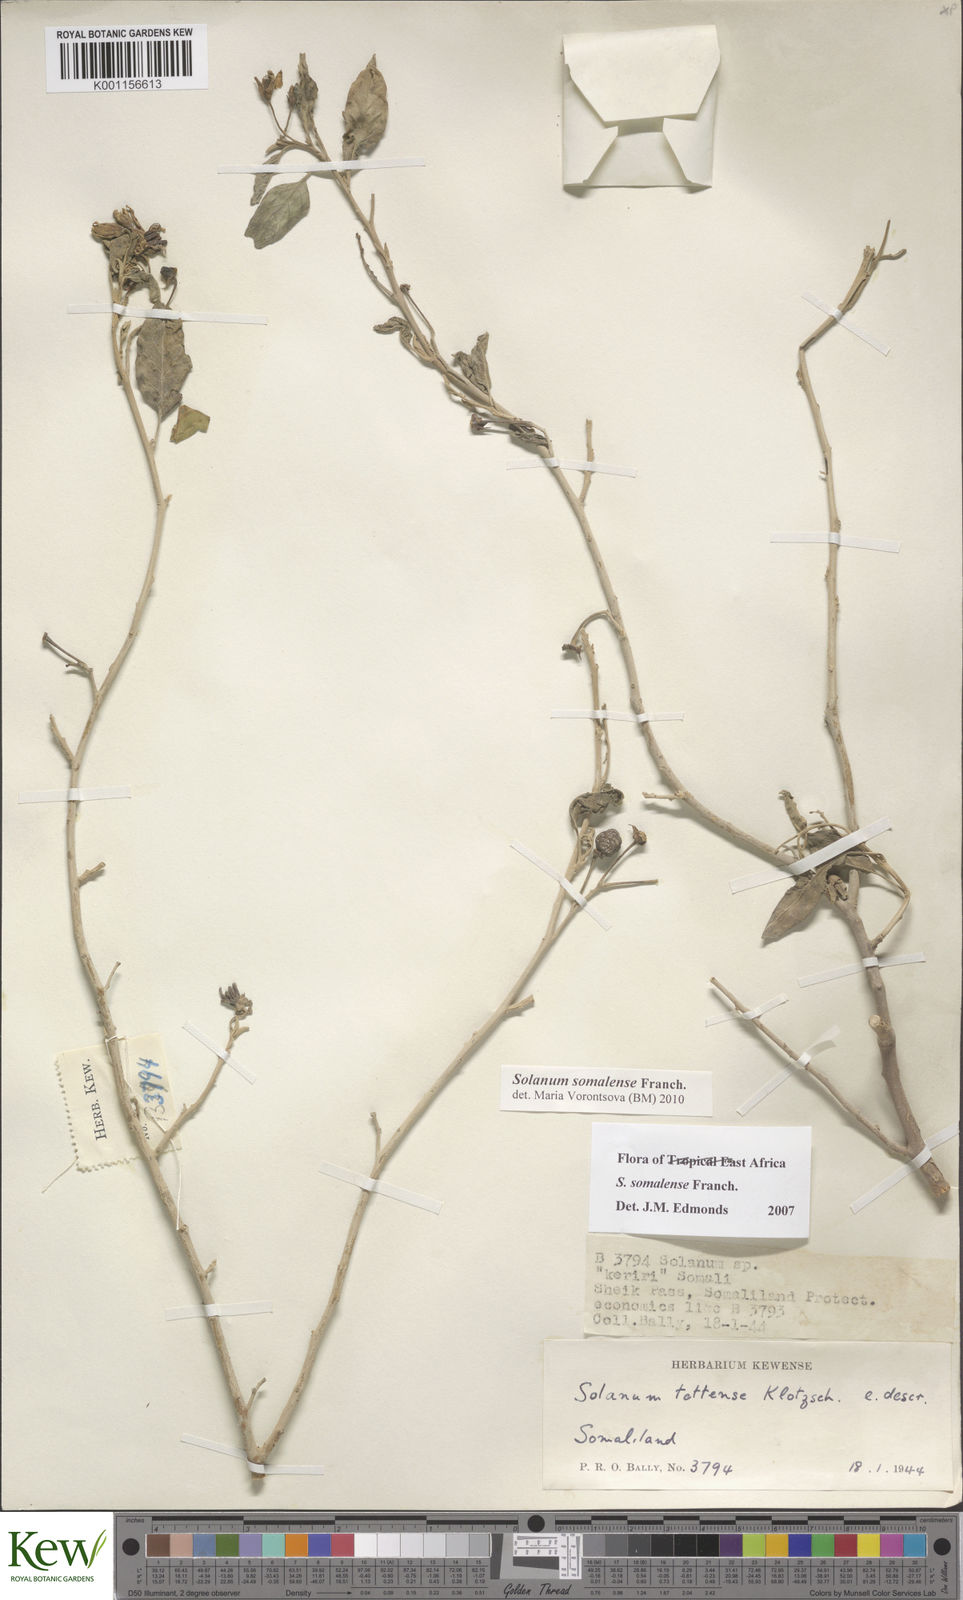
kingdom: Plantae
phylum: Tracheophyta
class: Magnoliopsida
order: Solanales
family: Solanaceae
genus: Solanum
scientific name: Solanum somalense
